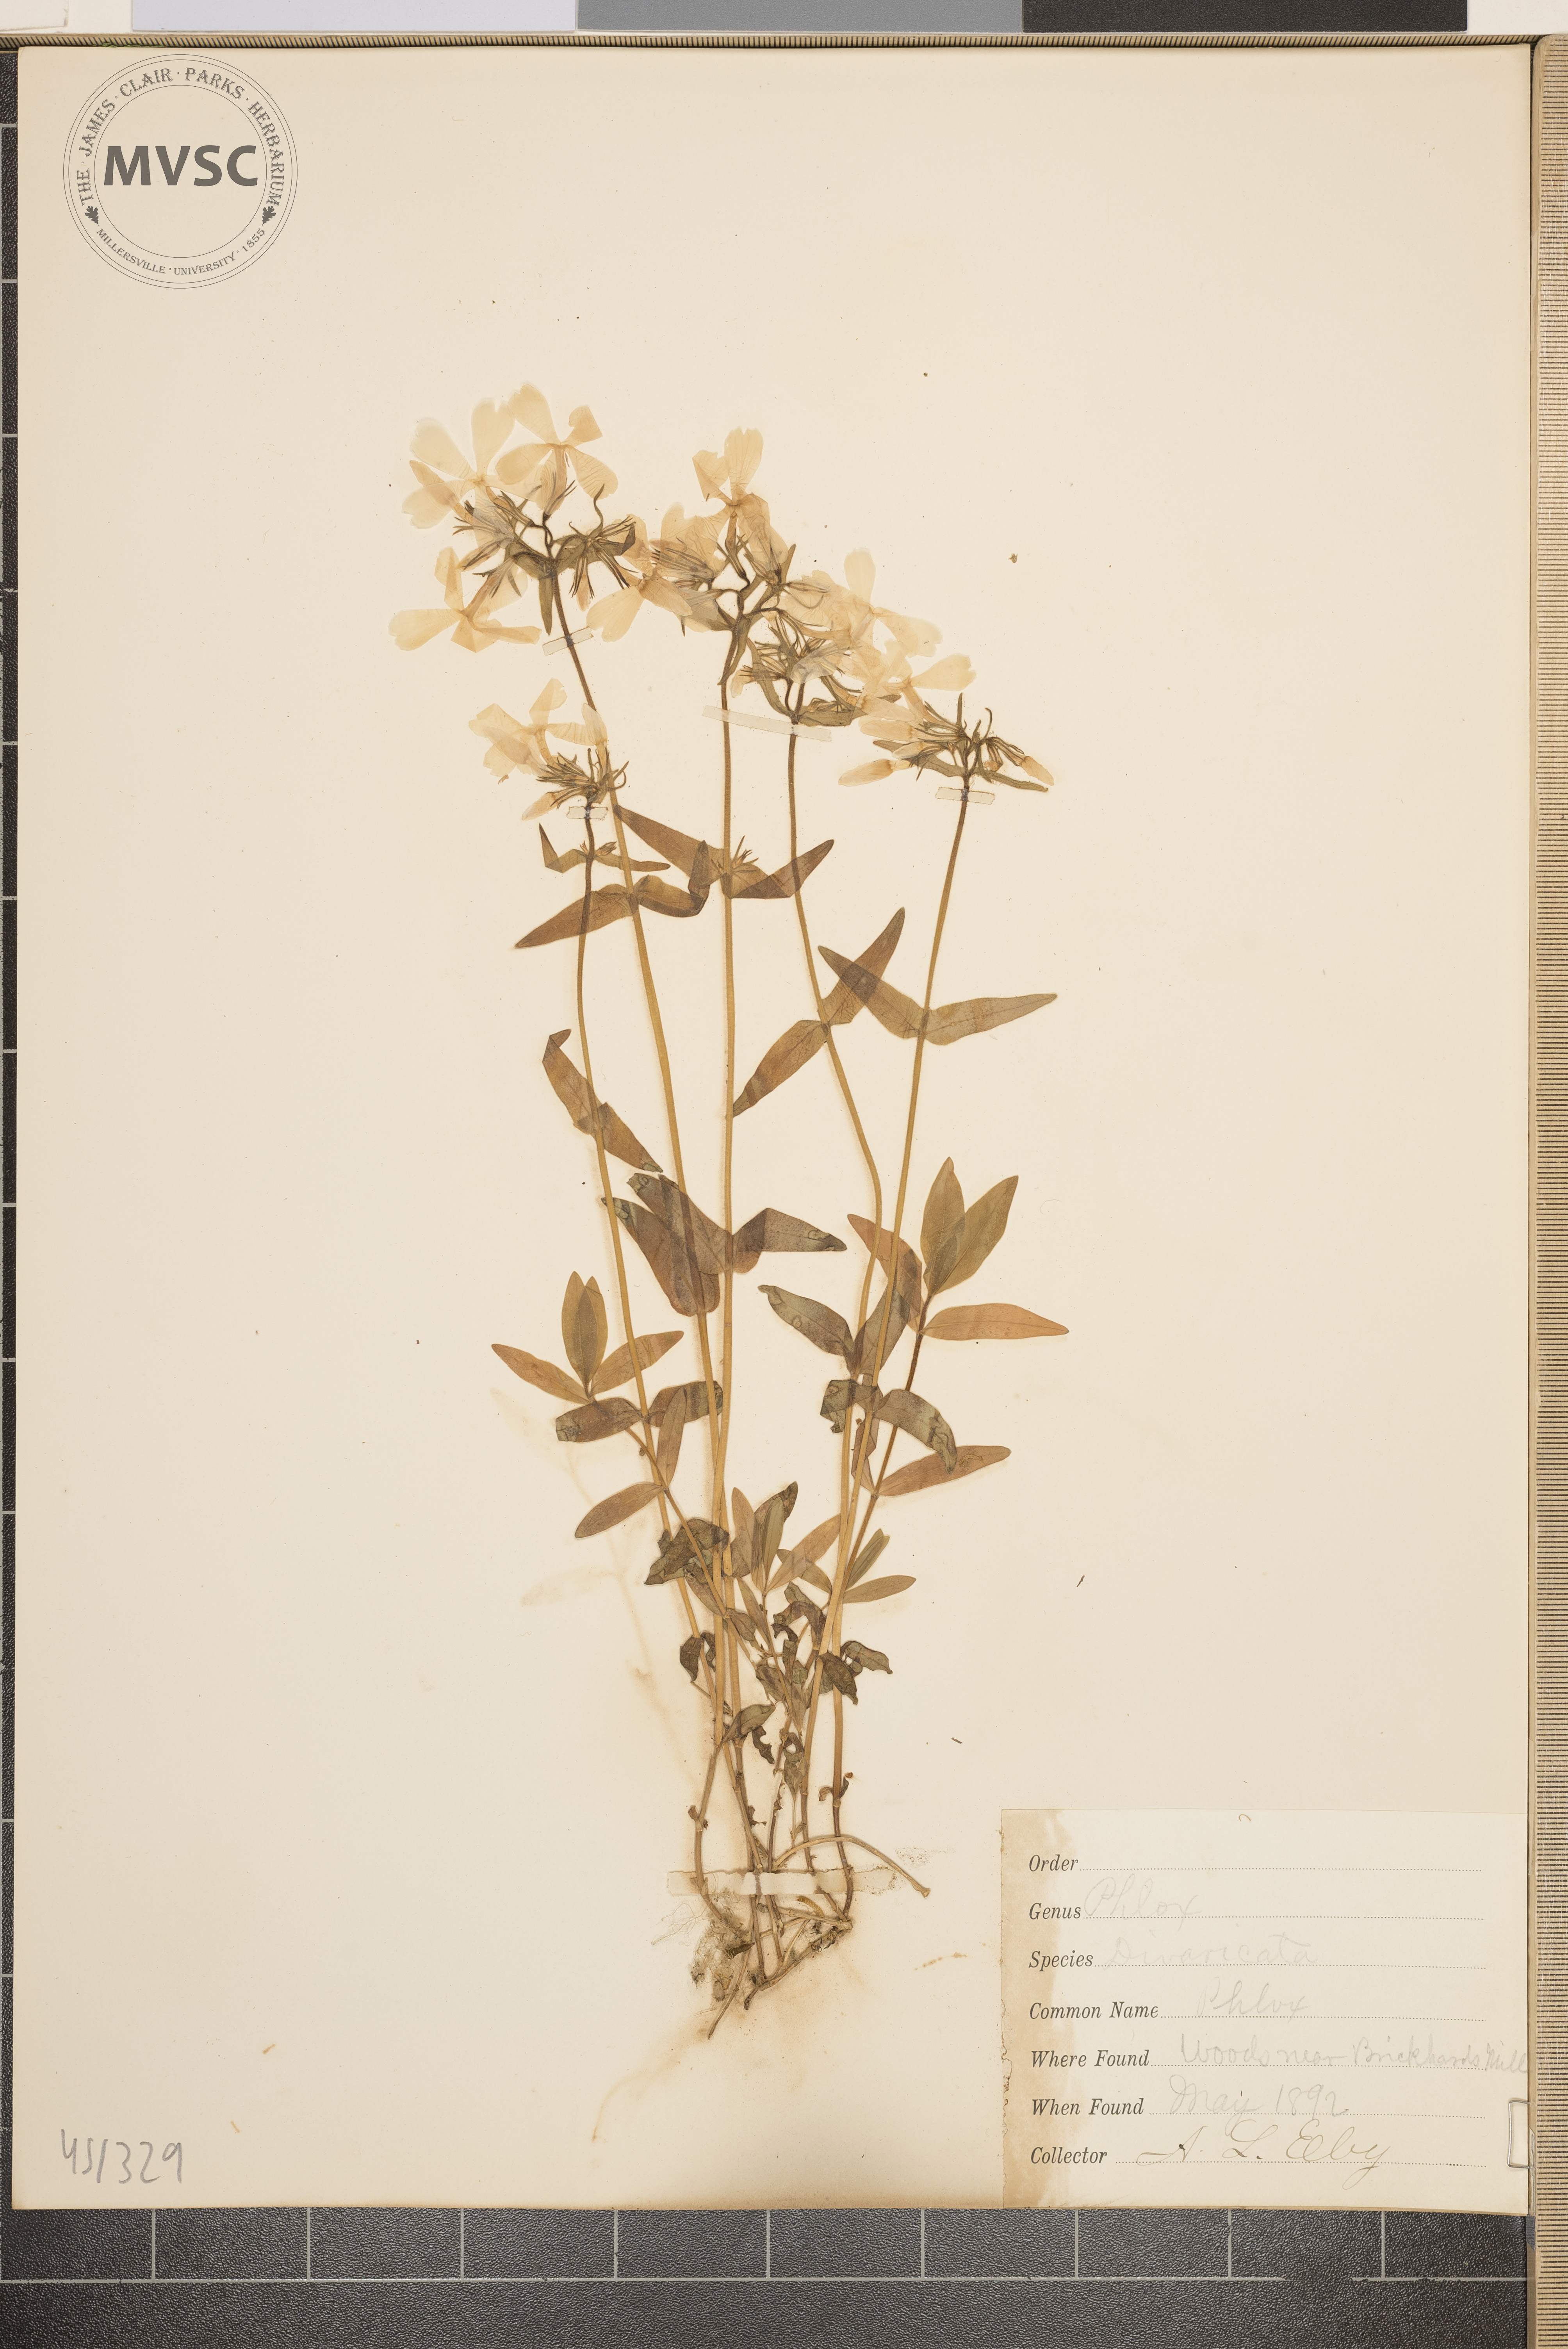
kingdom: Plantae
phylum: Tracheophyta
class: Magnoliopsida
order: Ericales
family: Polemoniaceae
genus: Phlox
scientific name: Phlox divaricata
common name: Phlox
